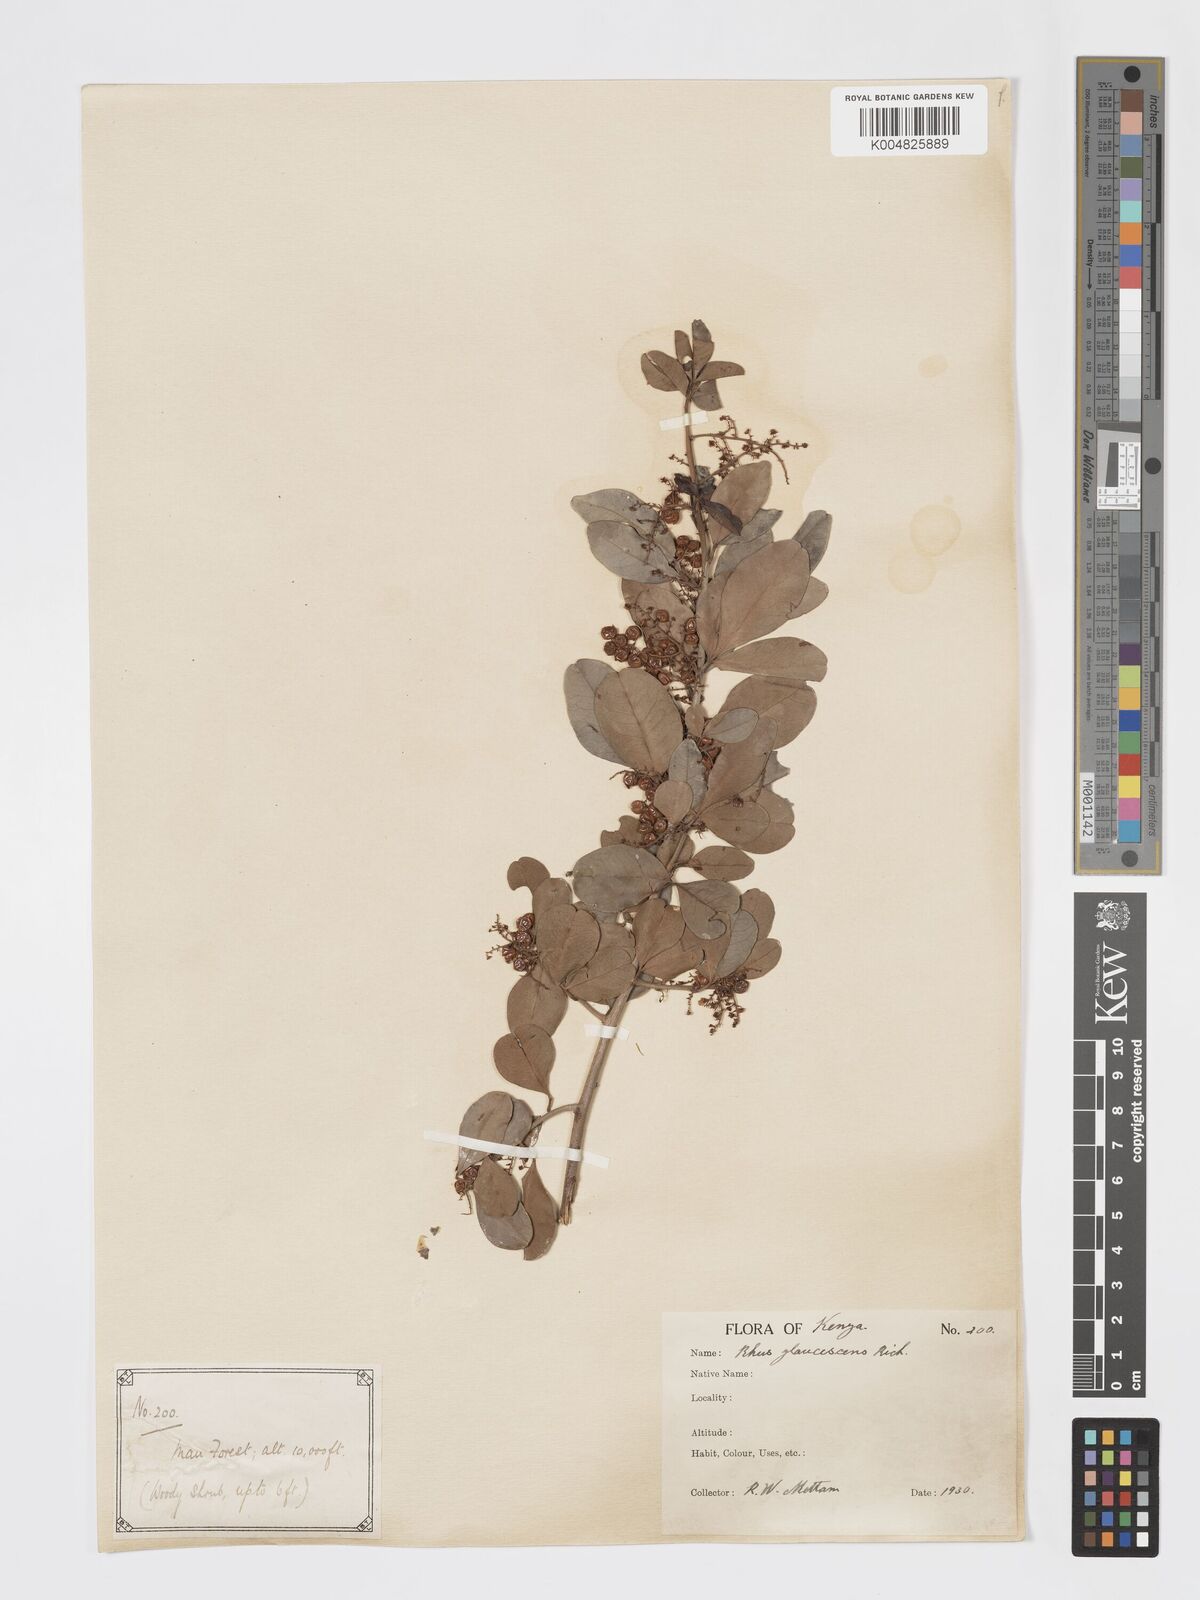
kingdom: Plantae
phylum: Tracheophyta
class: Magnoliopsida
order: Sapindales
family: Anacardiaceae
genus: Searsia
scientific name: Searsia natalensis
